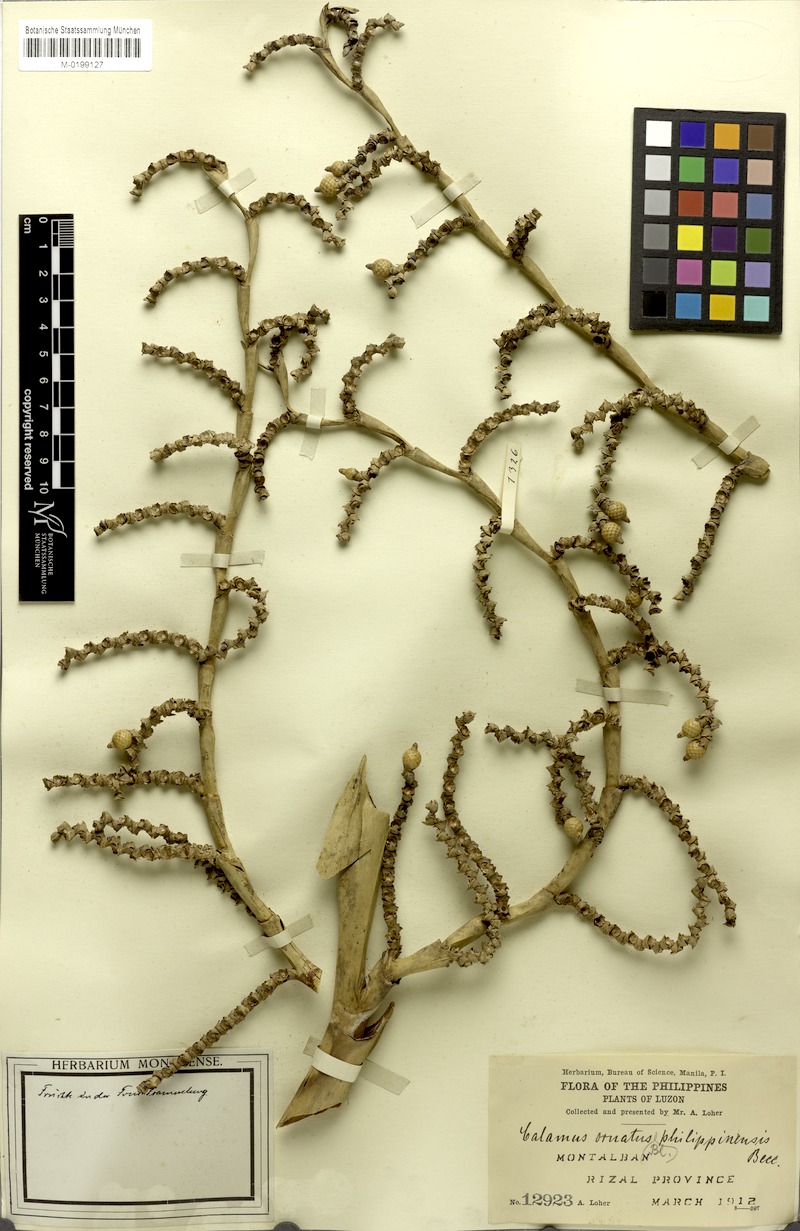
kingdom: Plantae
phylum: Tracheophyta
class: Liliopsida
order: Arecales
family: Arecaceae
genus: Calamus
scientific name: Calamus ornatus
